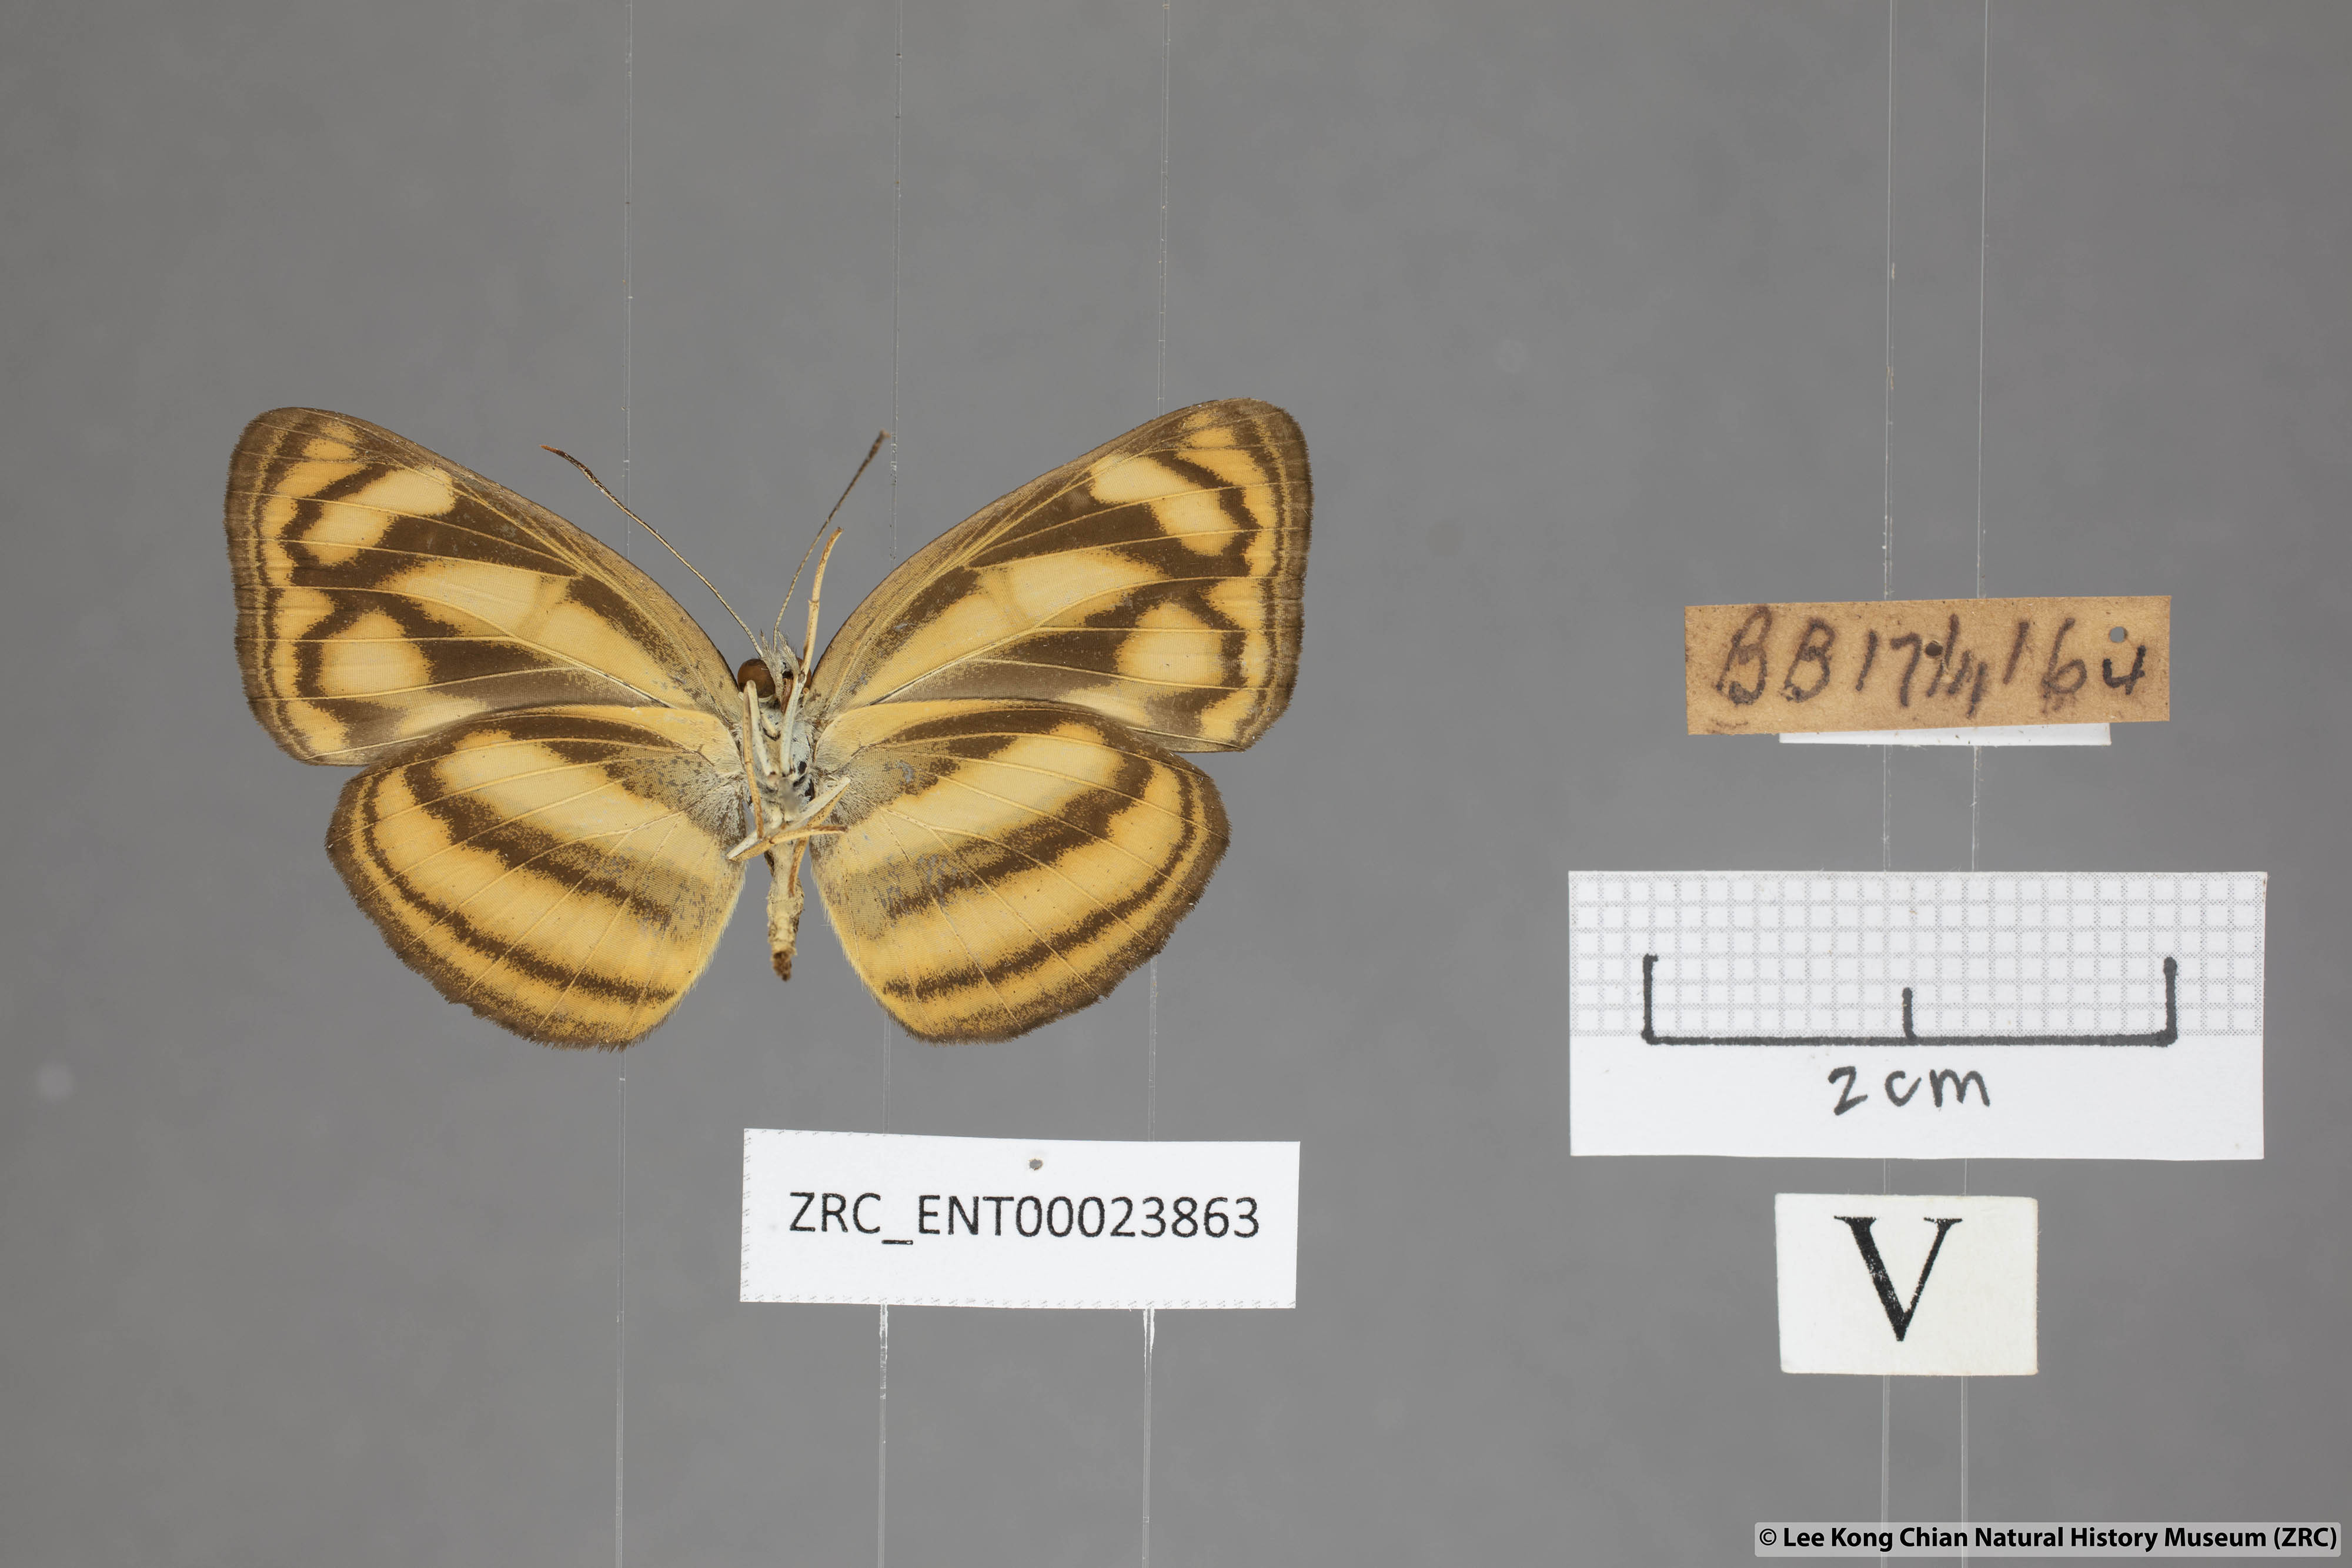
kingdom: Animalia
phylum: Arthropoda
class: Insecta
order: Lepidoptera
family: Nymphalidae
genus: Lasippa
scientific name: Lasippa tiga
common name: Malayan lascar
